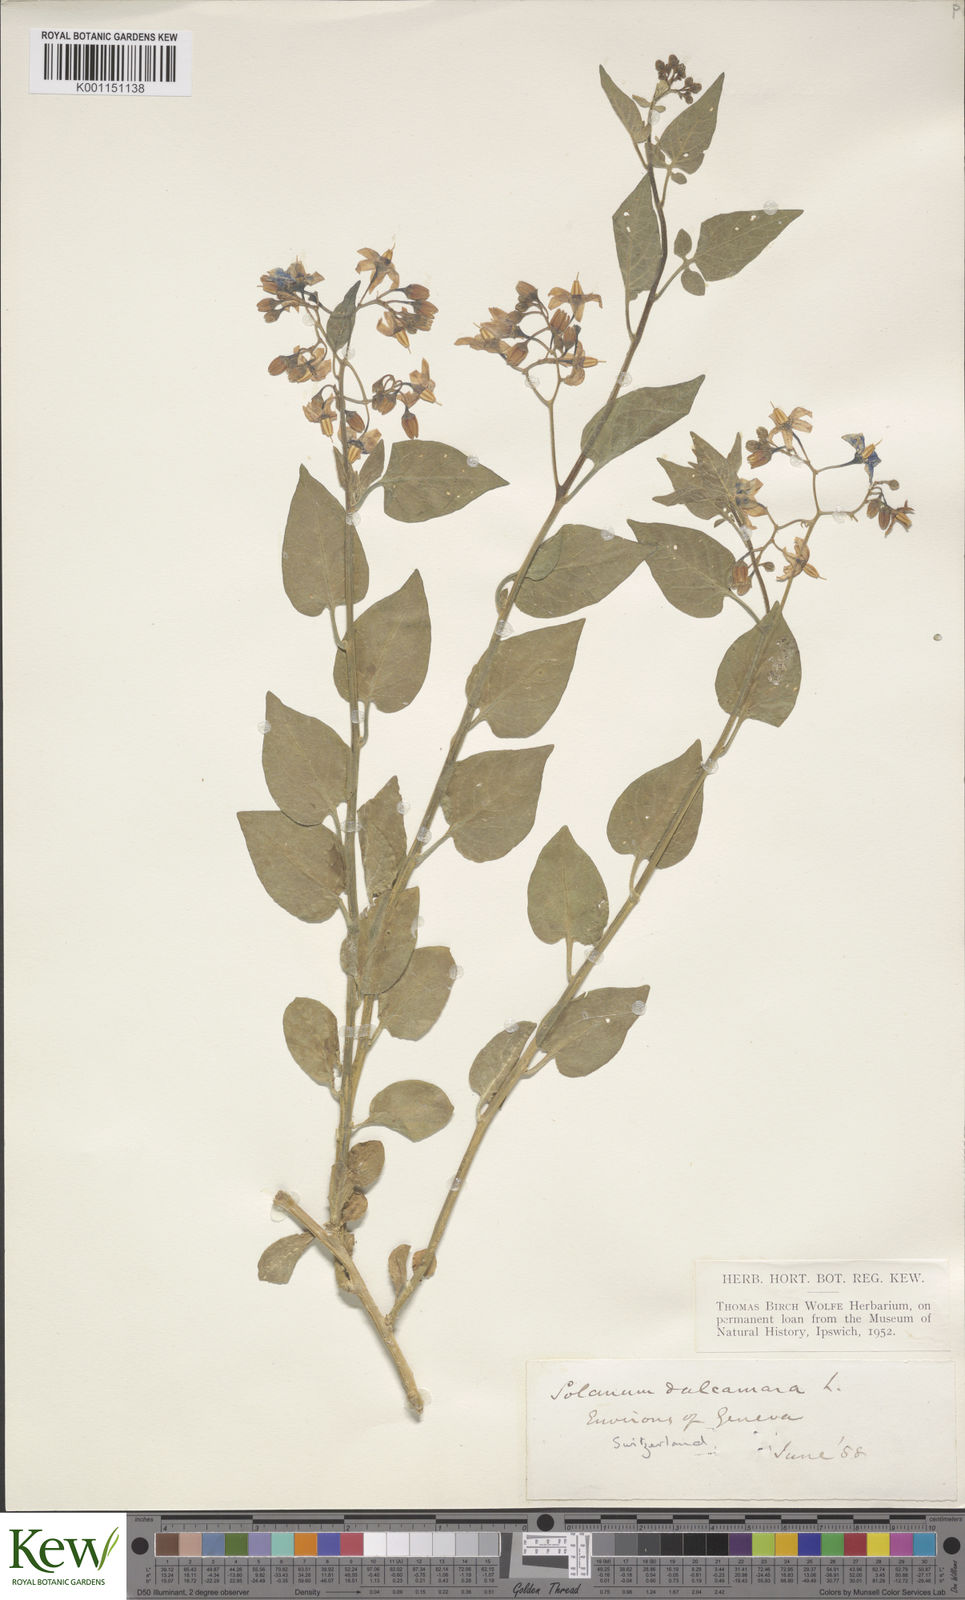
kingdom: Plantae
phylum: Tracheophyta
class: Magnoliopsida
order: Solanales
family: Solanaceae
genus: Solanum
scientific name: Solanum dulcamara
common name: Climbing nightshade
